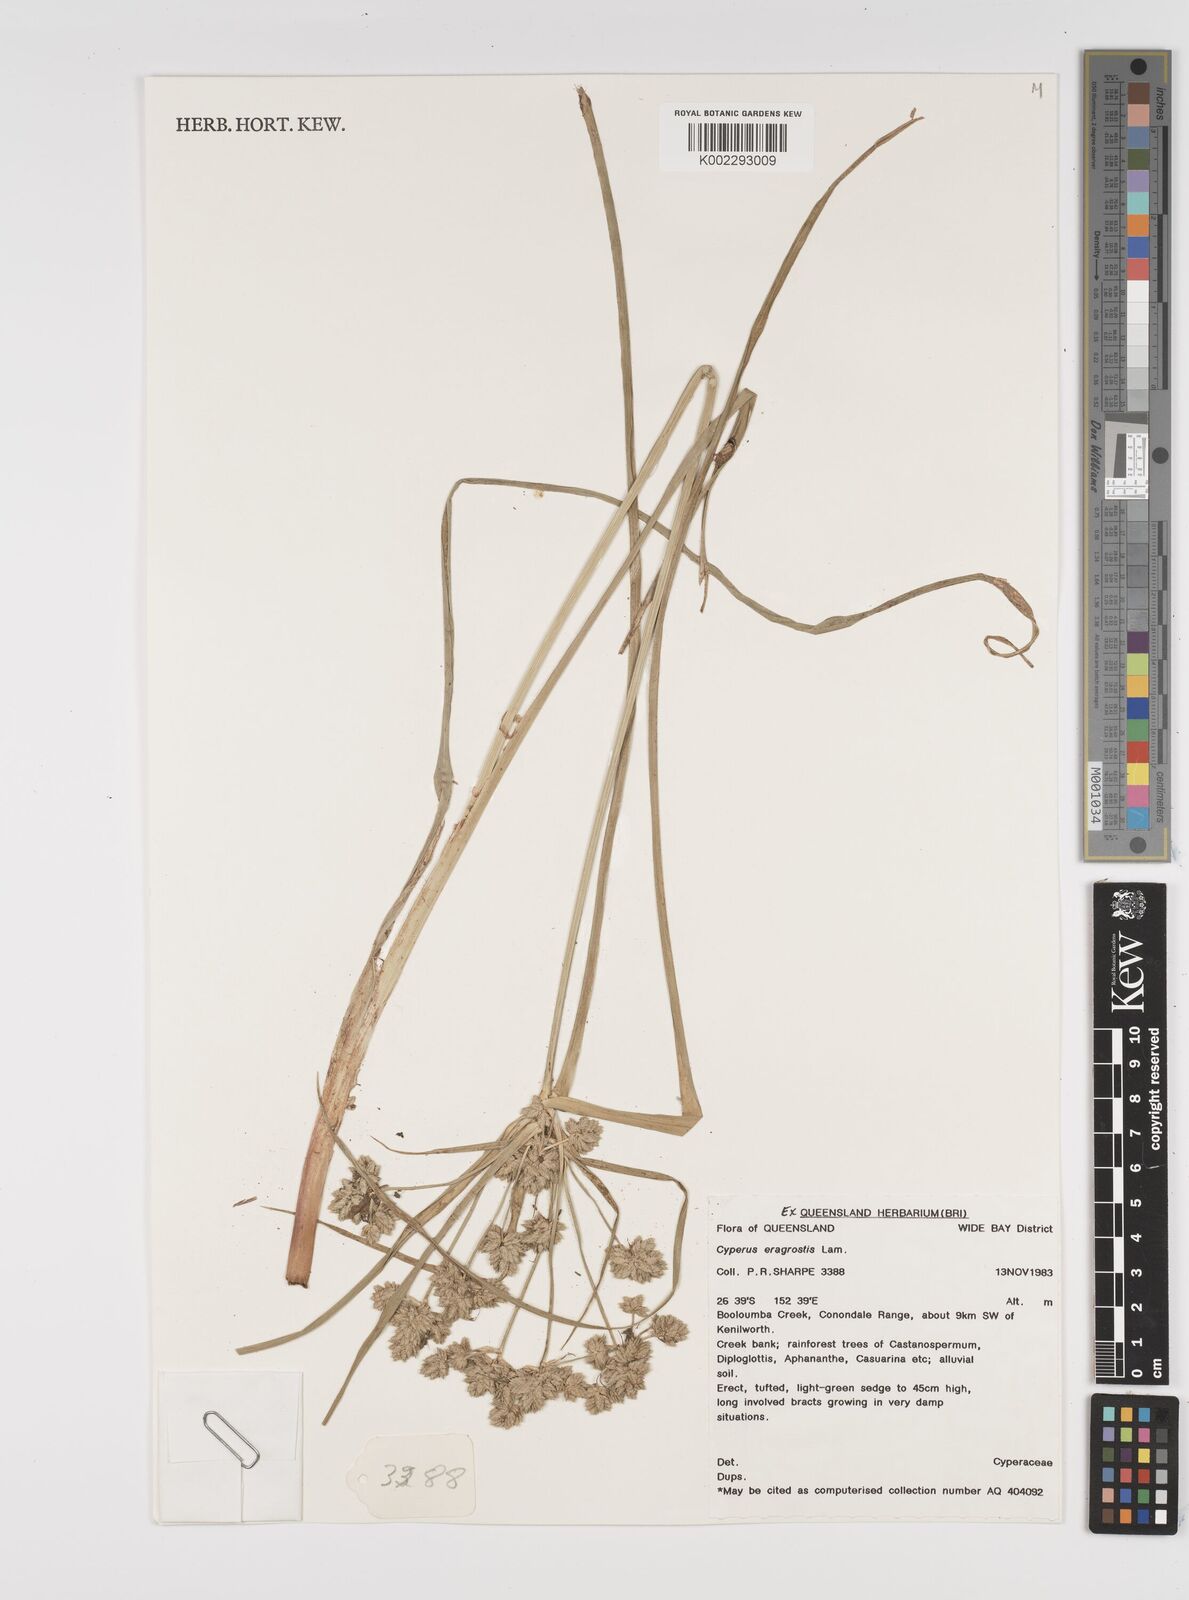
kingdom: Plantae
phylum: Tracheophyta
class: Liliopsida
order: Poales
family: Cyperaceae
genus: Cyperus
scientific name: Cyperus eragrostis
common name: Tall flatsedge
